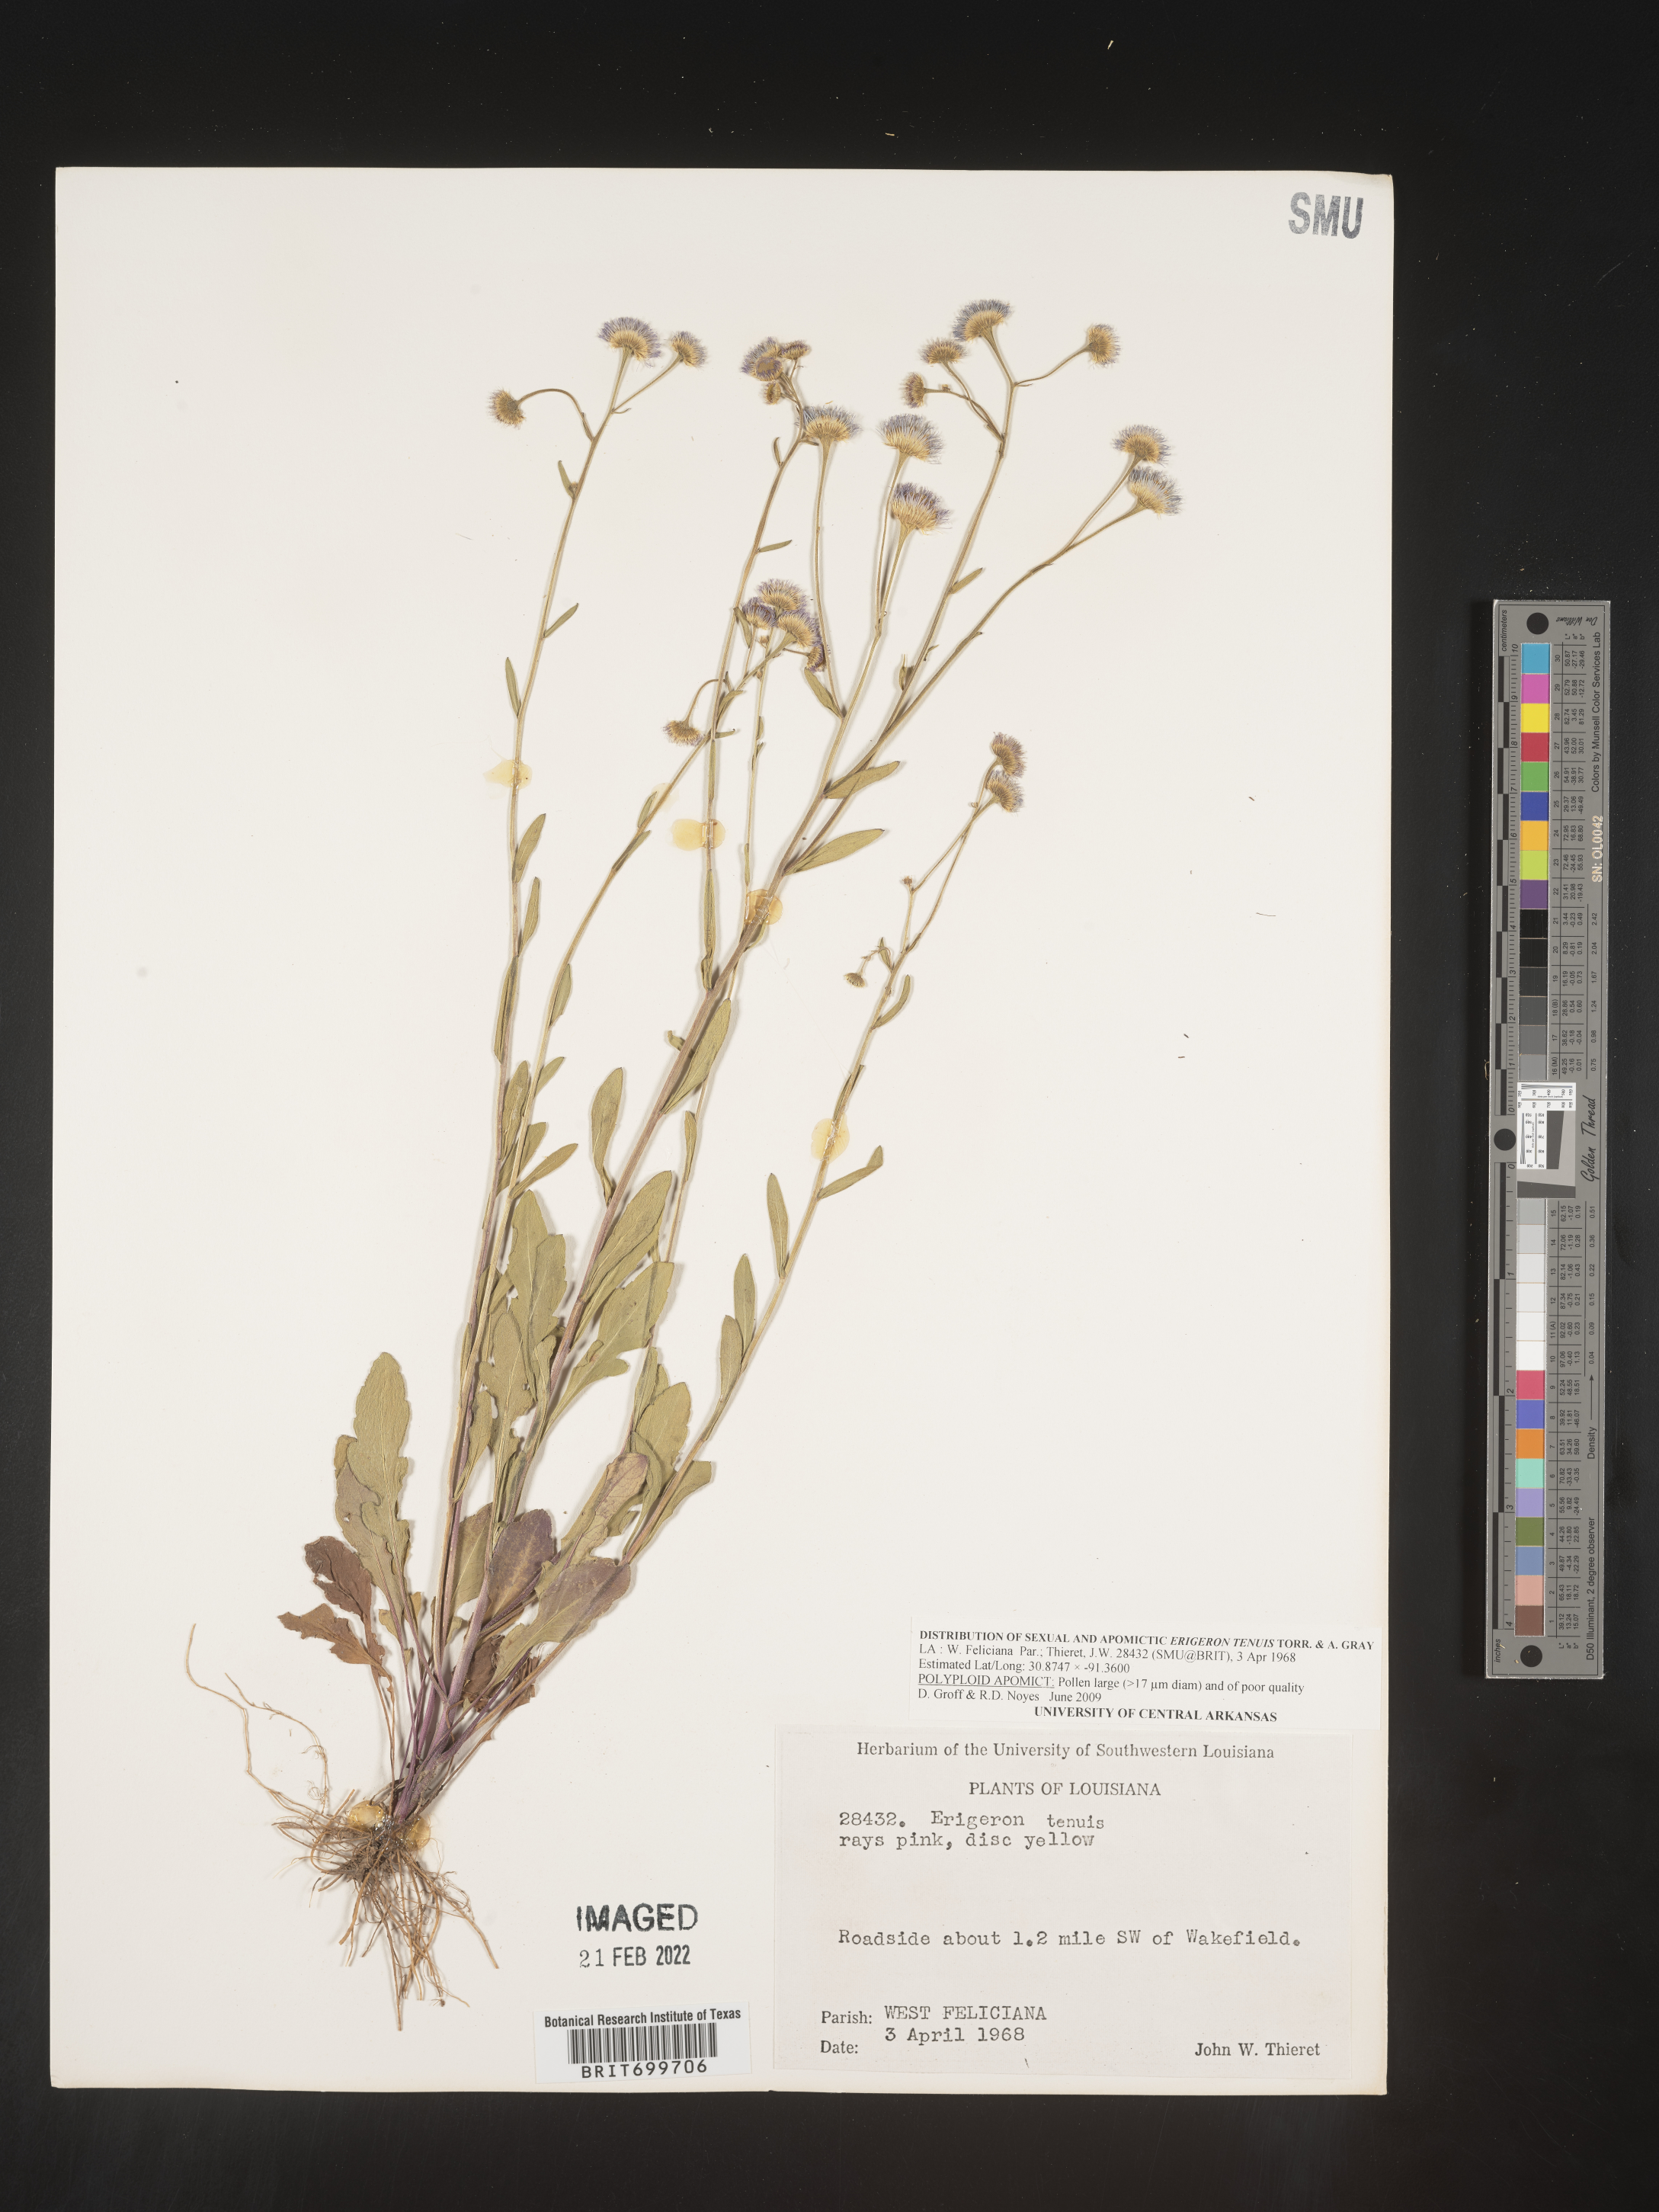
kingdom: Plantae
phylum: Tracheophyta
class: Magnoliopsida
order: Asterales
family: Asteraceae
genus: Erigeron
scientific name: Erigeron tenuis
